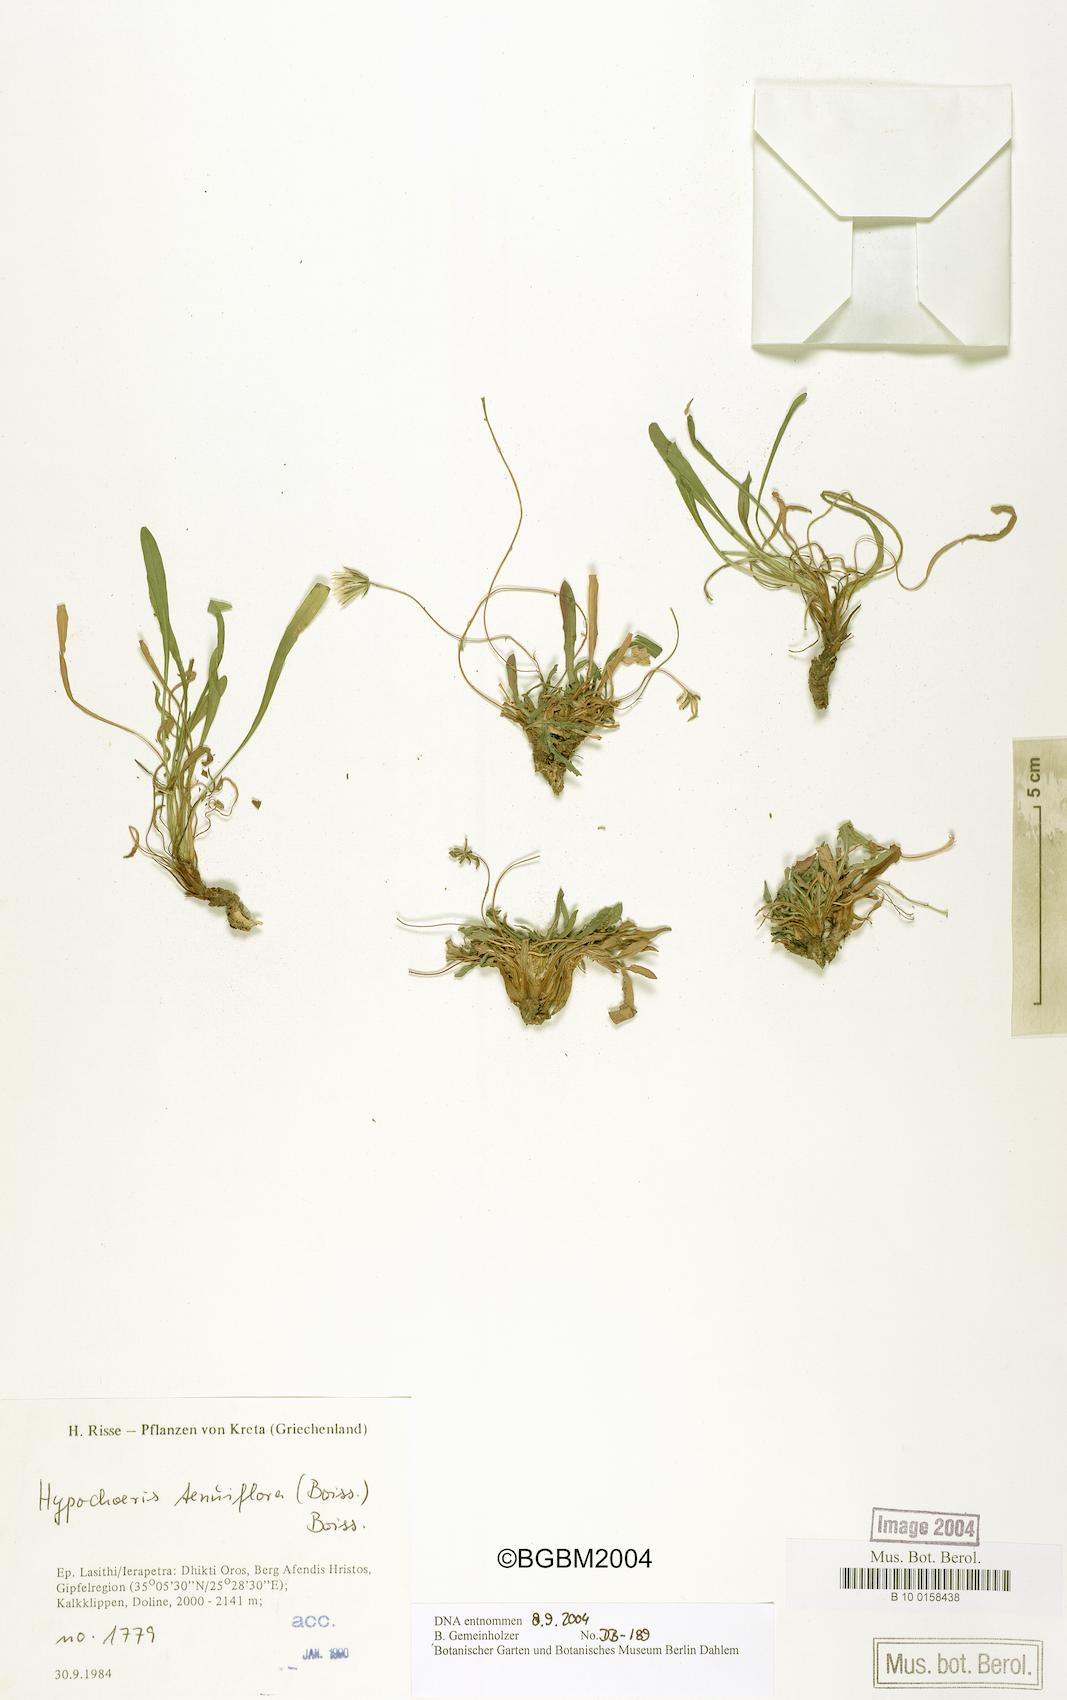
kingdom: Plantae
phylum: Tracheophyta
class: Magnoliopsida
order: Asterales
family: Asteraceae
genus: Hypochaeris
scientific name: Hypochaeris tenuiflora
